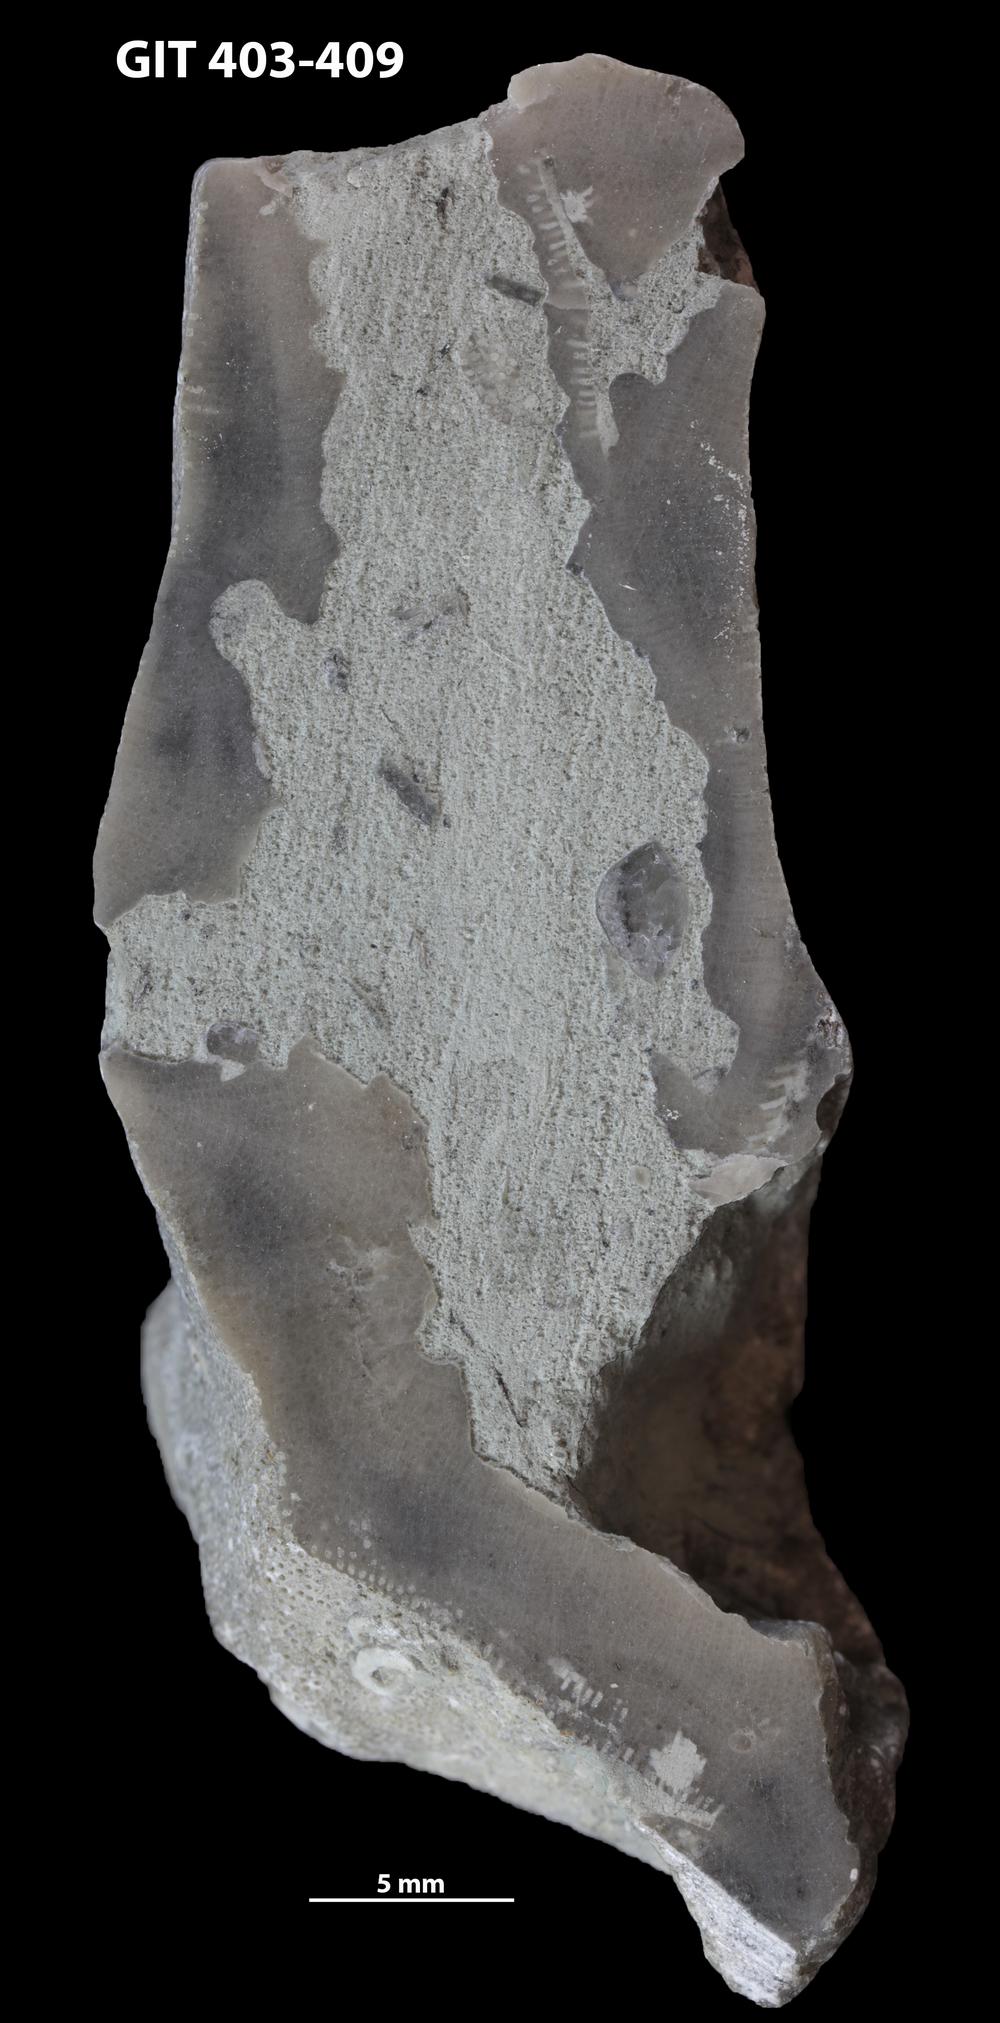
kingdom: Animalia
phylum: Bryozoa
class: Stenolaemata
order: Cystoporida
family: Fistuliporidae
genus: Fistulipora
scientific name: Fistulipora
